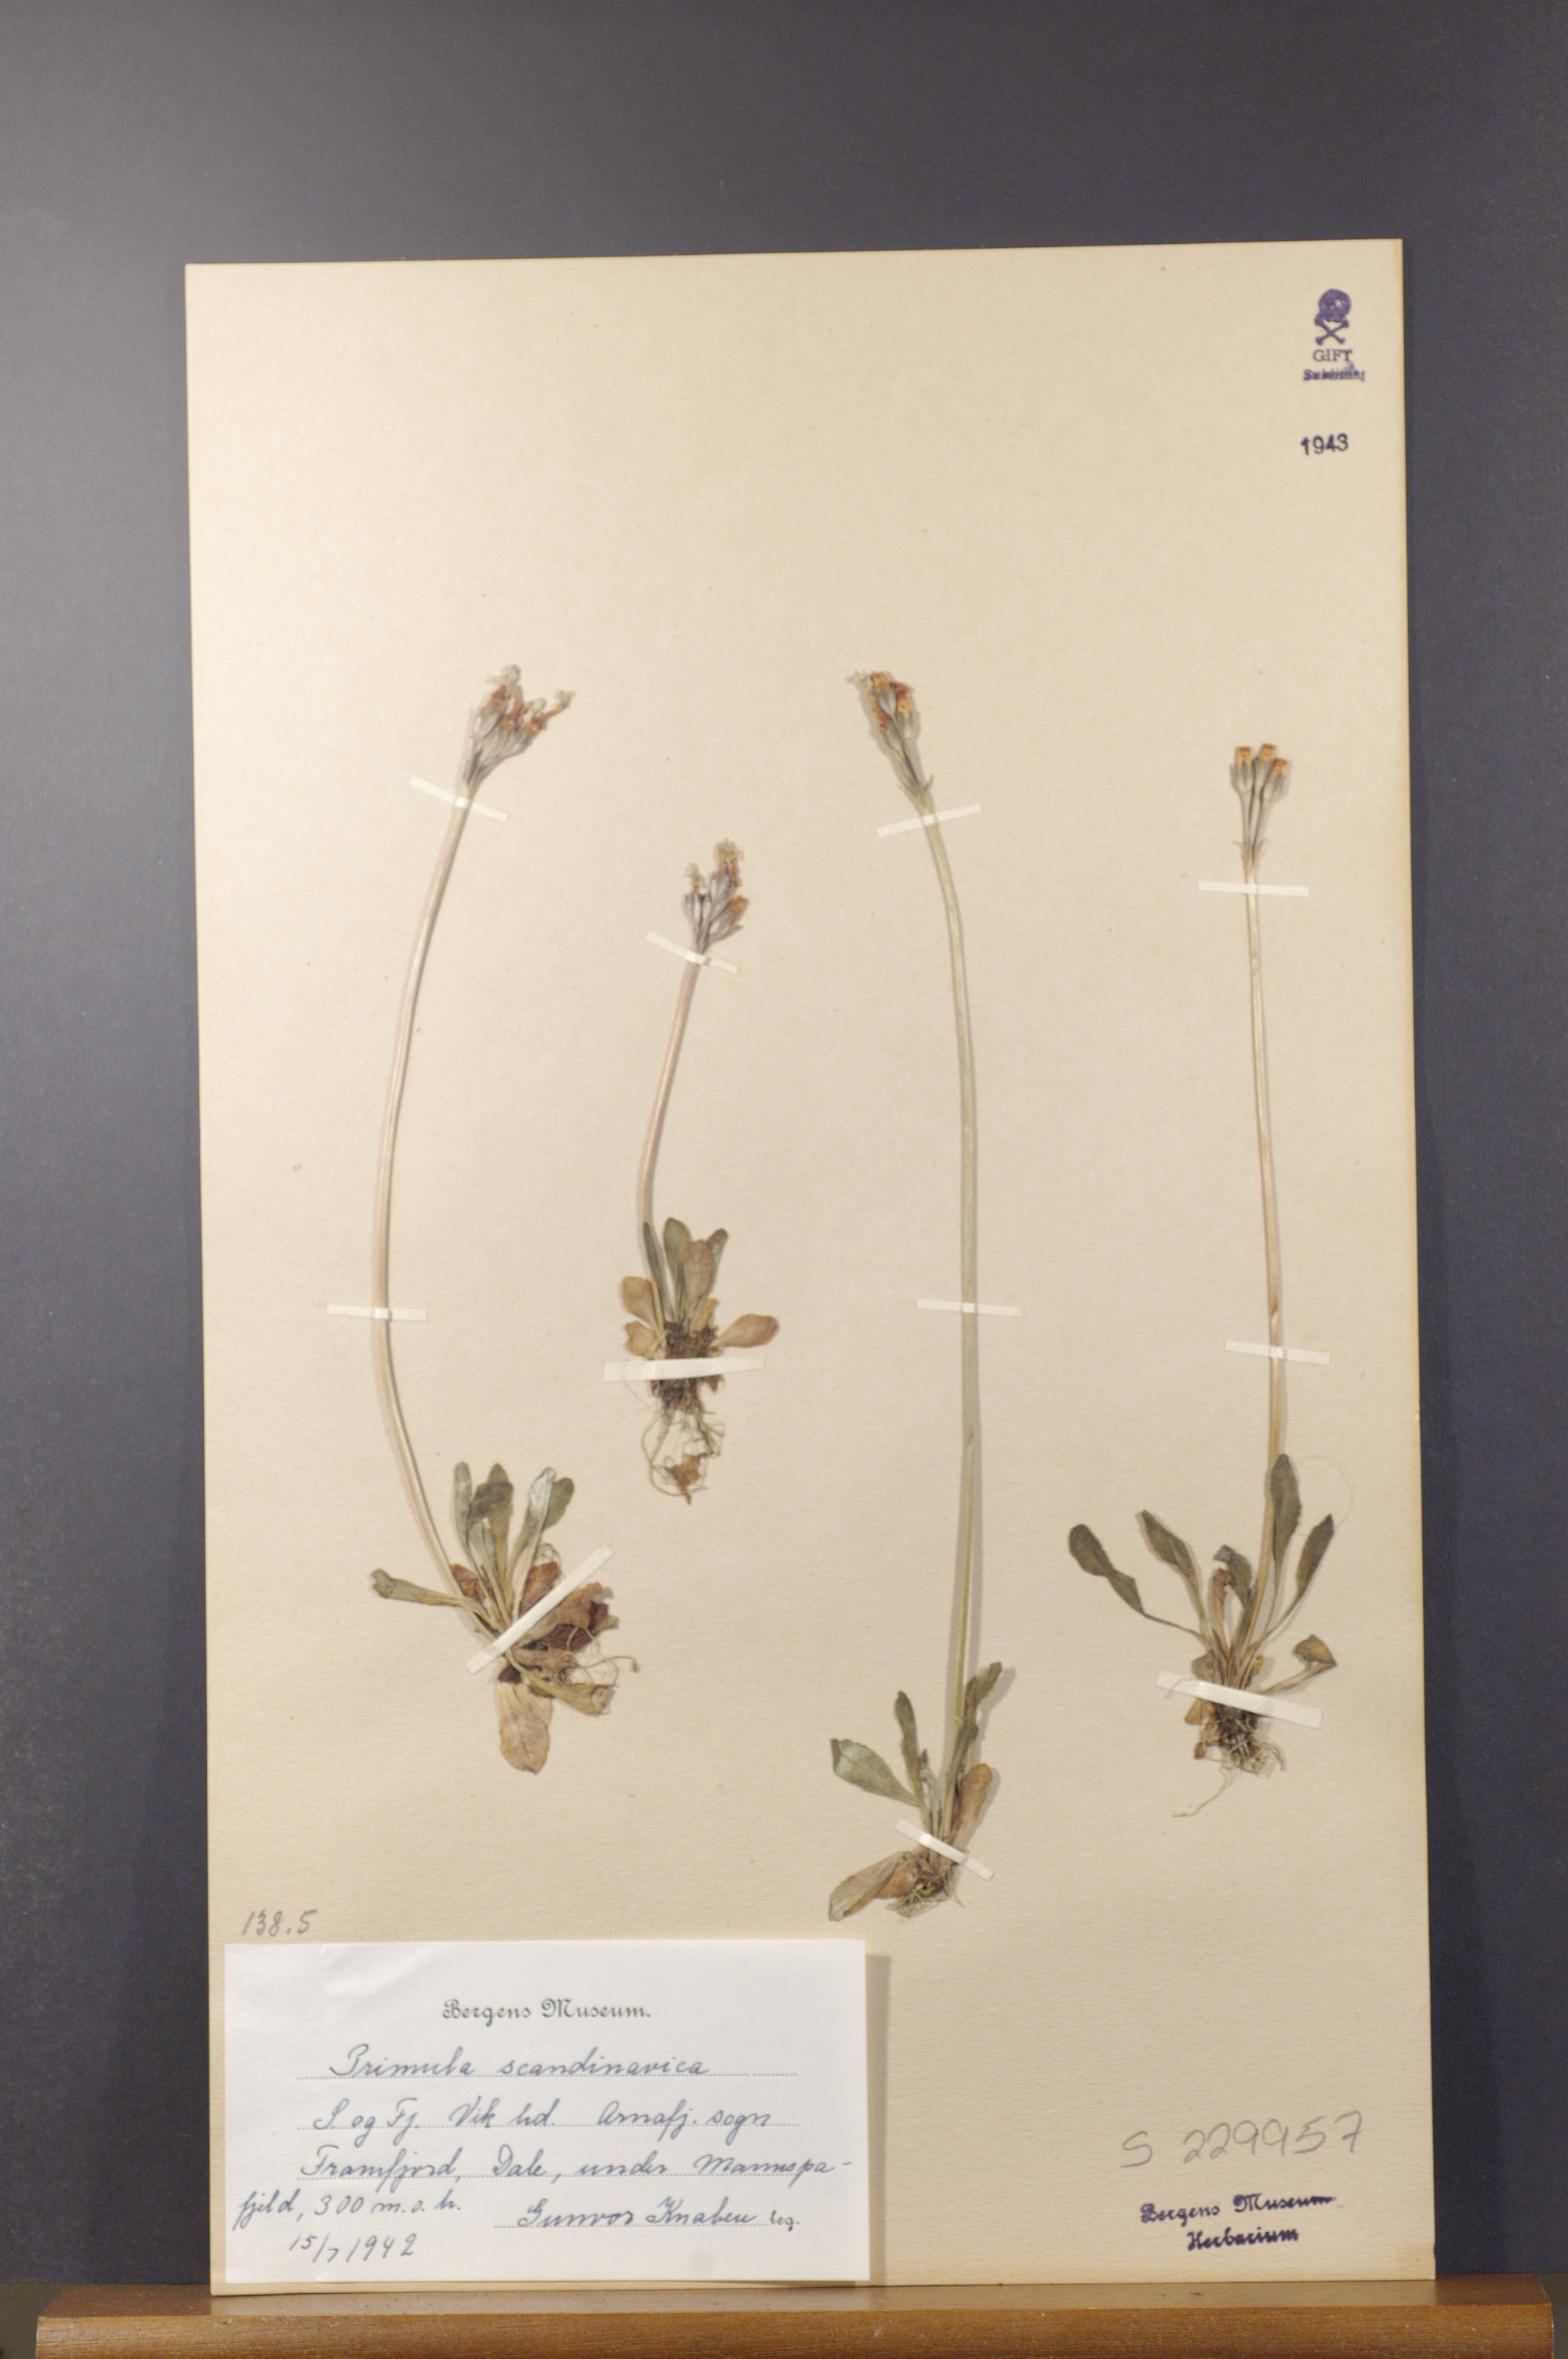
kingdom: Plantae
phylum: Tracheophyta
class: Magnoliopsida
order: Ericales
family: Primulaceae
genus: Primula
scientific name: Primula scandinavica
